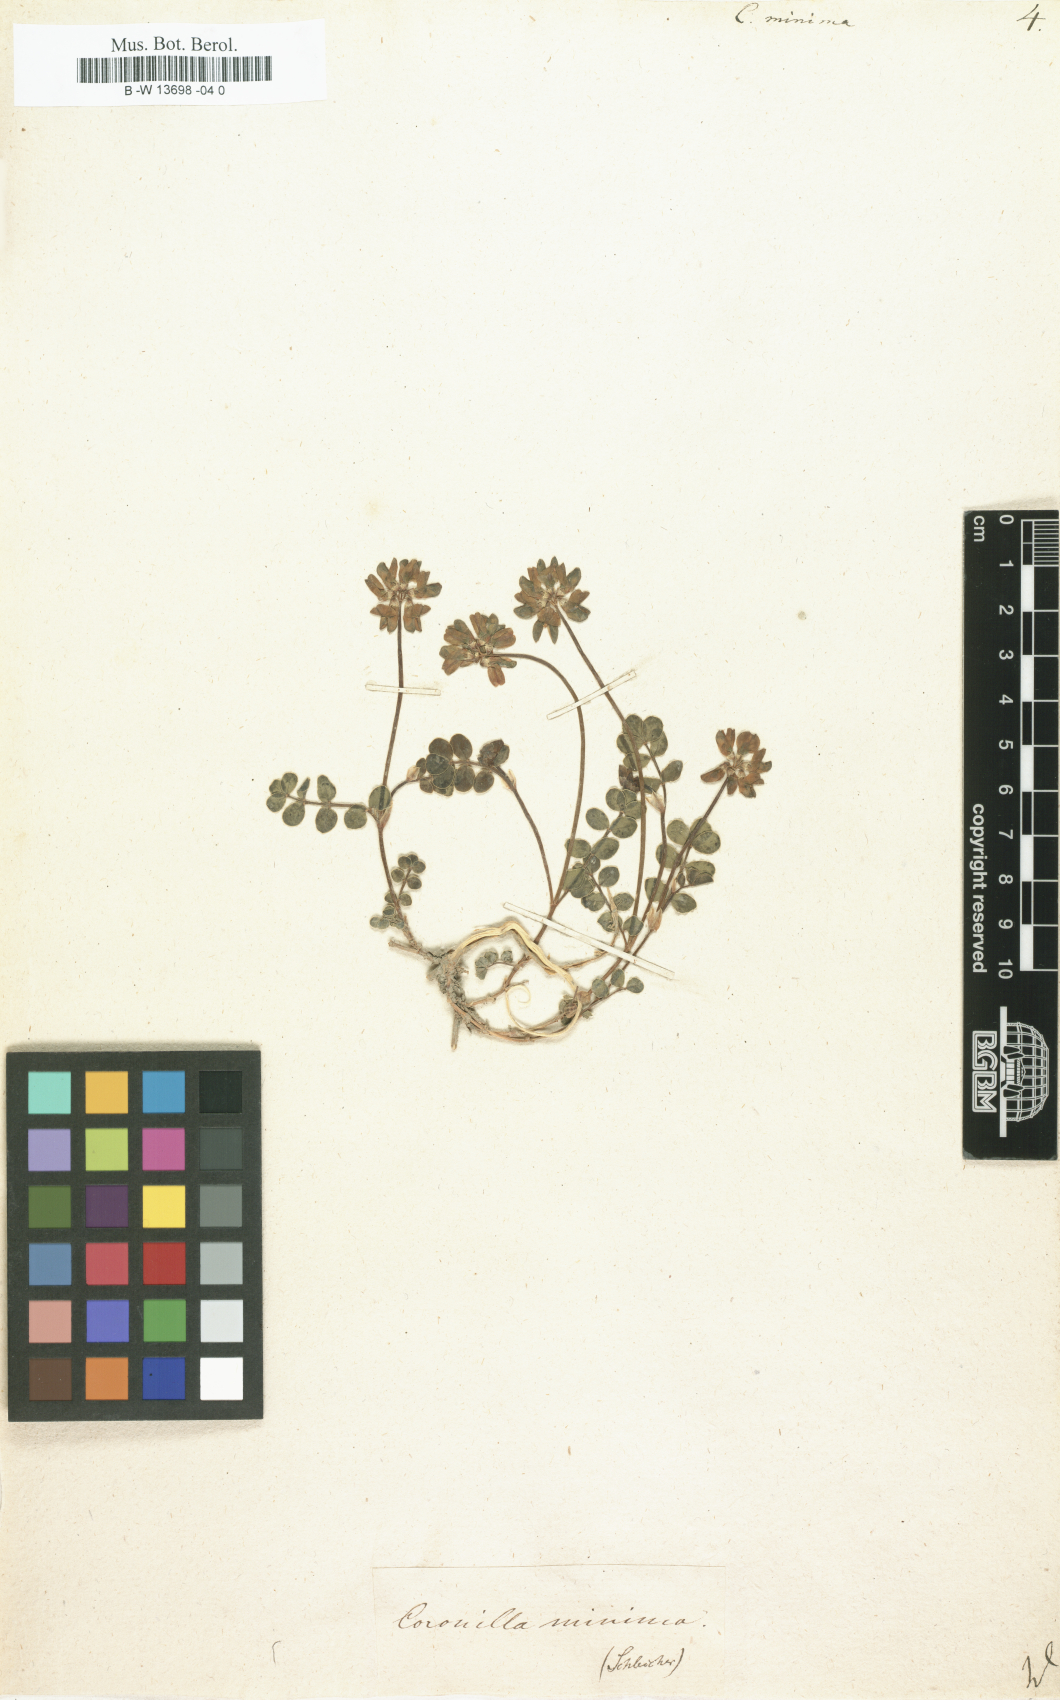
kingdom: Plantae
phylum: Tracheophyta
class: Magnoliopsida
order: Fabales
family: Fabaceae
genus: Coronilla
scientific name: Coronilla minima
